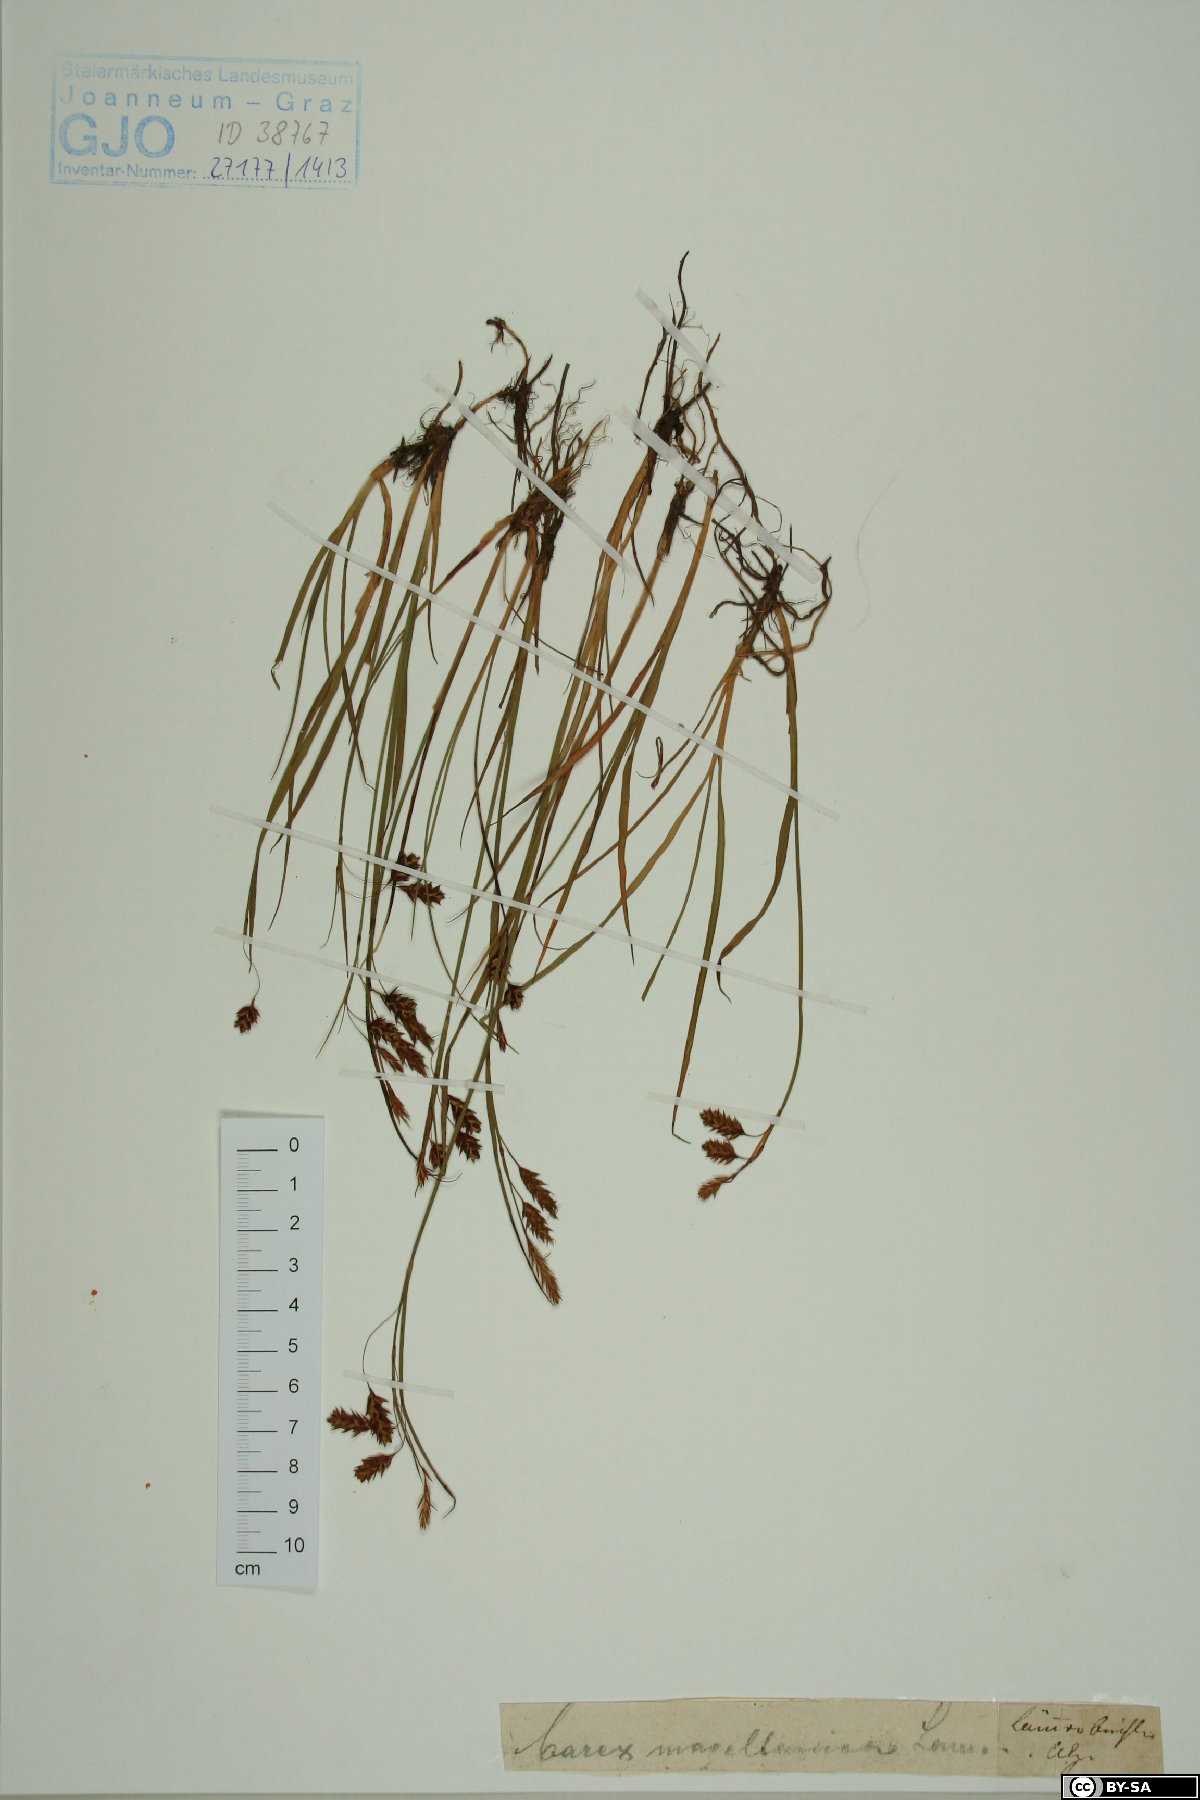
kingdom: Plantae
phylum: Tracheophyta
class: Liliopsida
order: Poales
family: Cyperaceae
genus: Carex
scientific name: Carex magellanica
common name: Bog sedge
